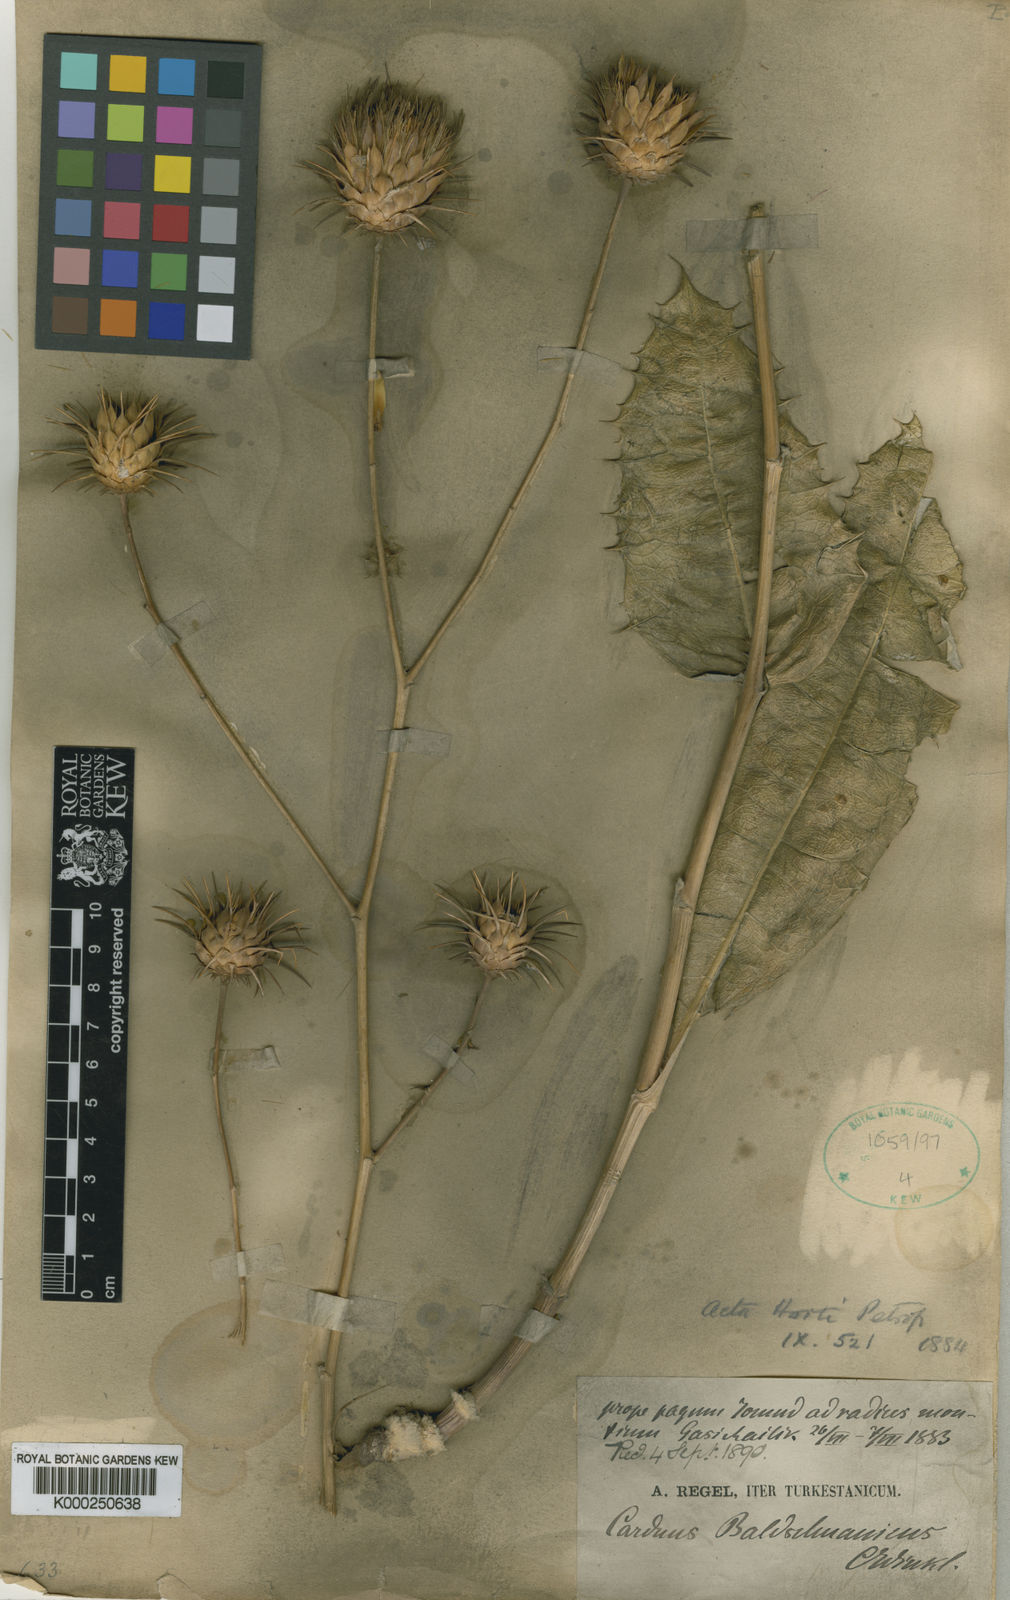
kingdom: Plantae
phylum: Tracheophyta
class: Magnoliopsida
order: Asterales
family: Asteraceae
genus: Olgaea
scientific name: Olgaea baldshuanica
